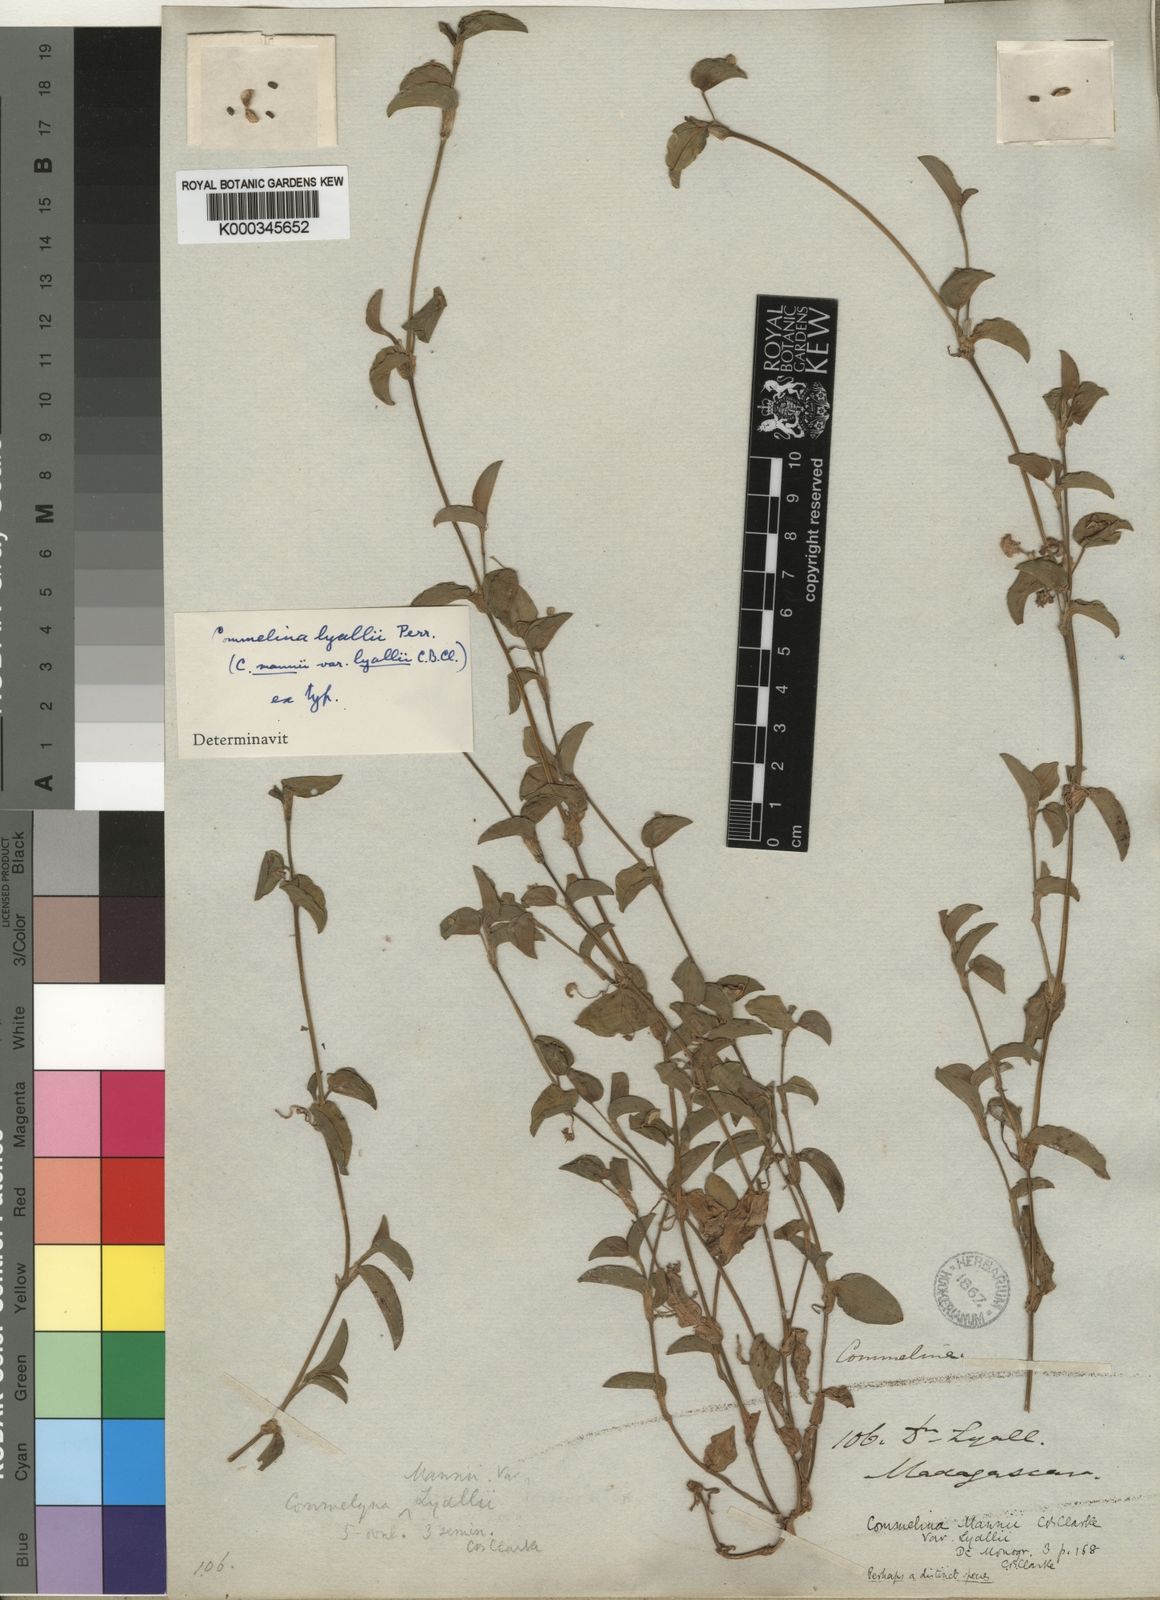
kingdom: Plantae
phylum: Tracheophyta
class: Liliopsida
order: Commelinales
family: Commelinaceae
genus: Commelina
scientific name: Commelina
